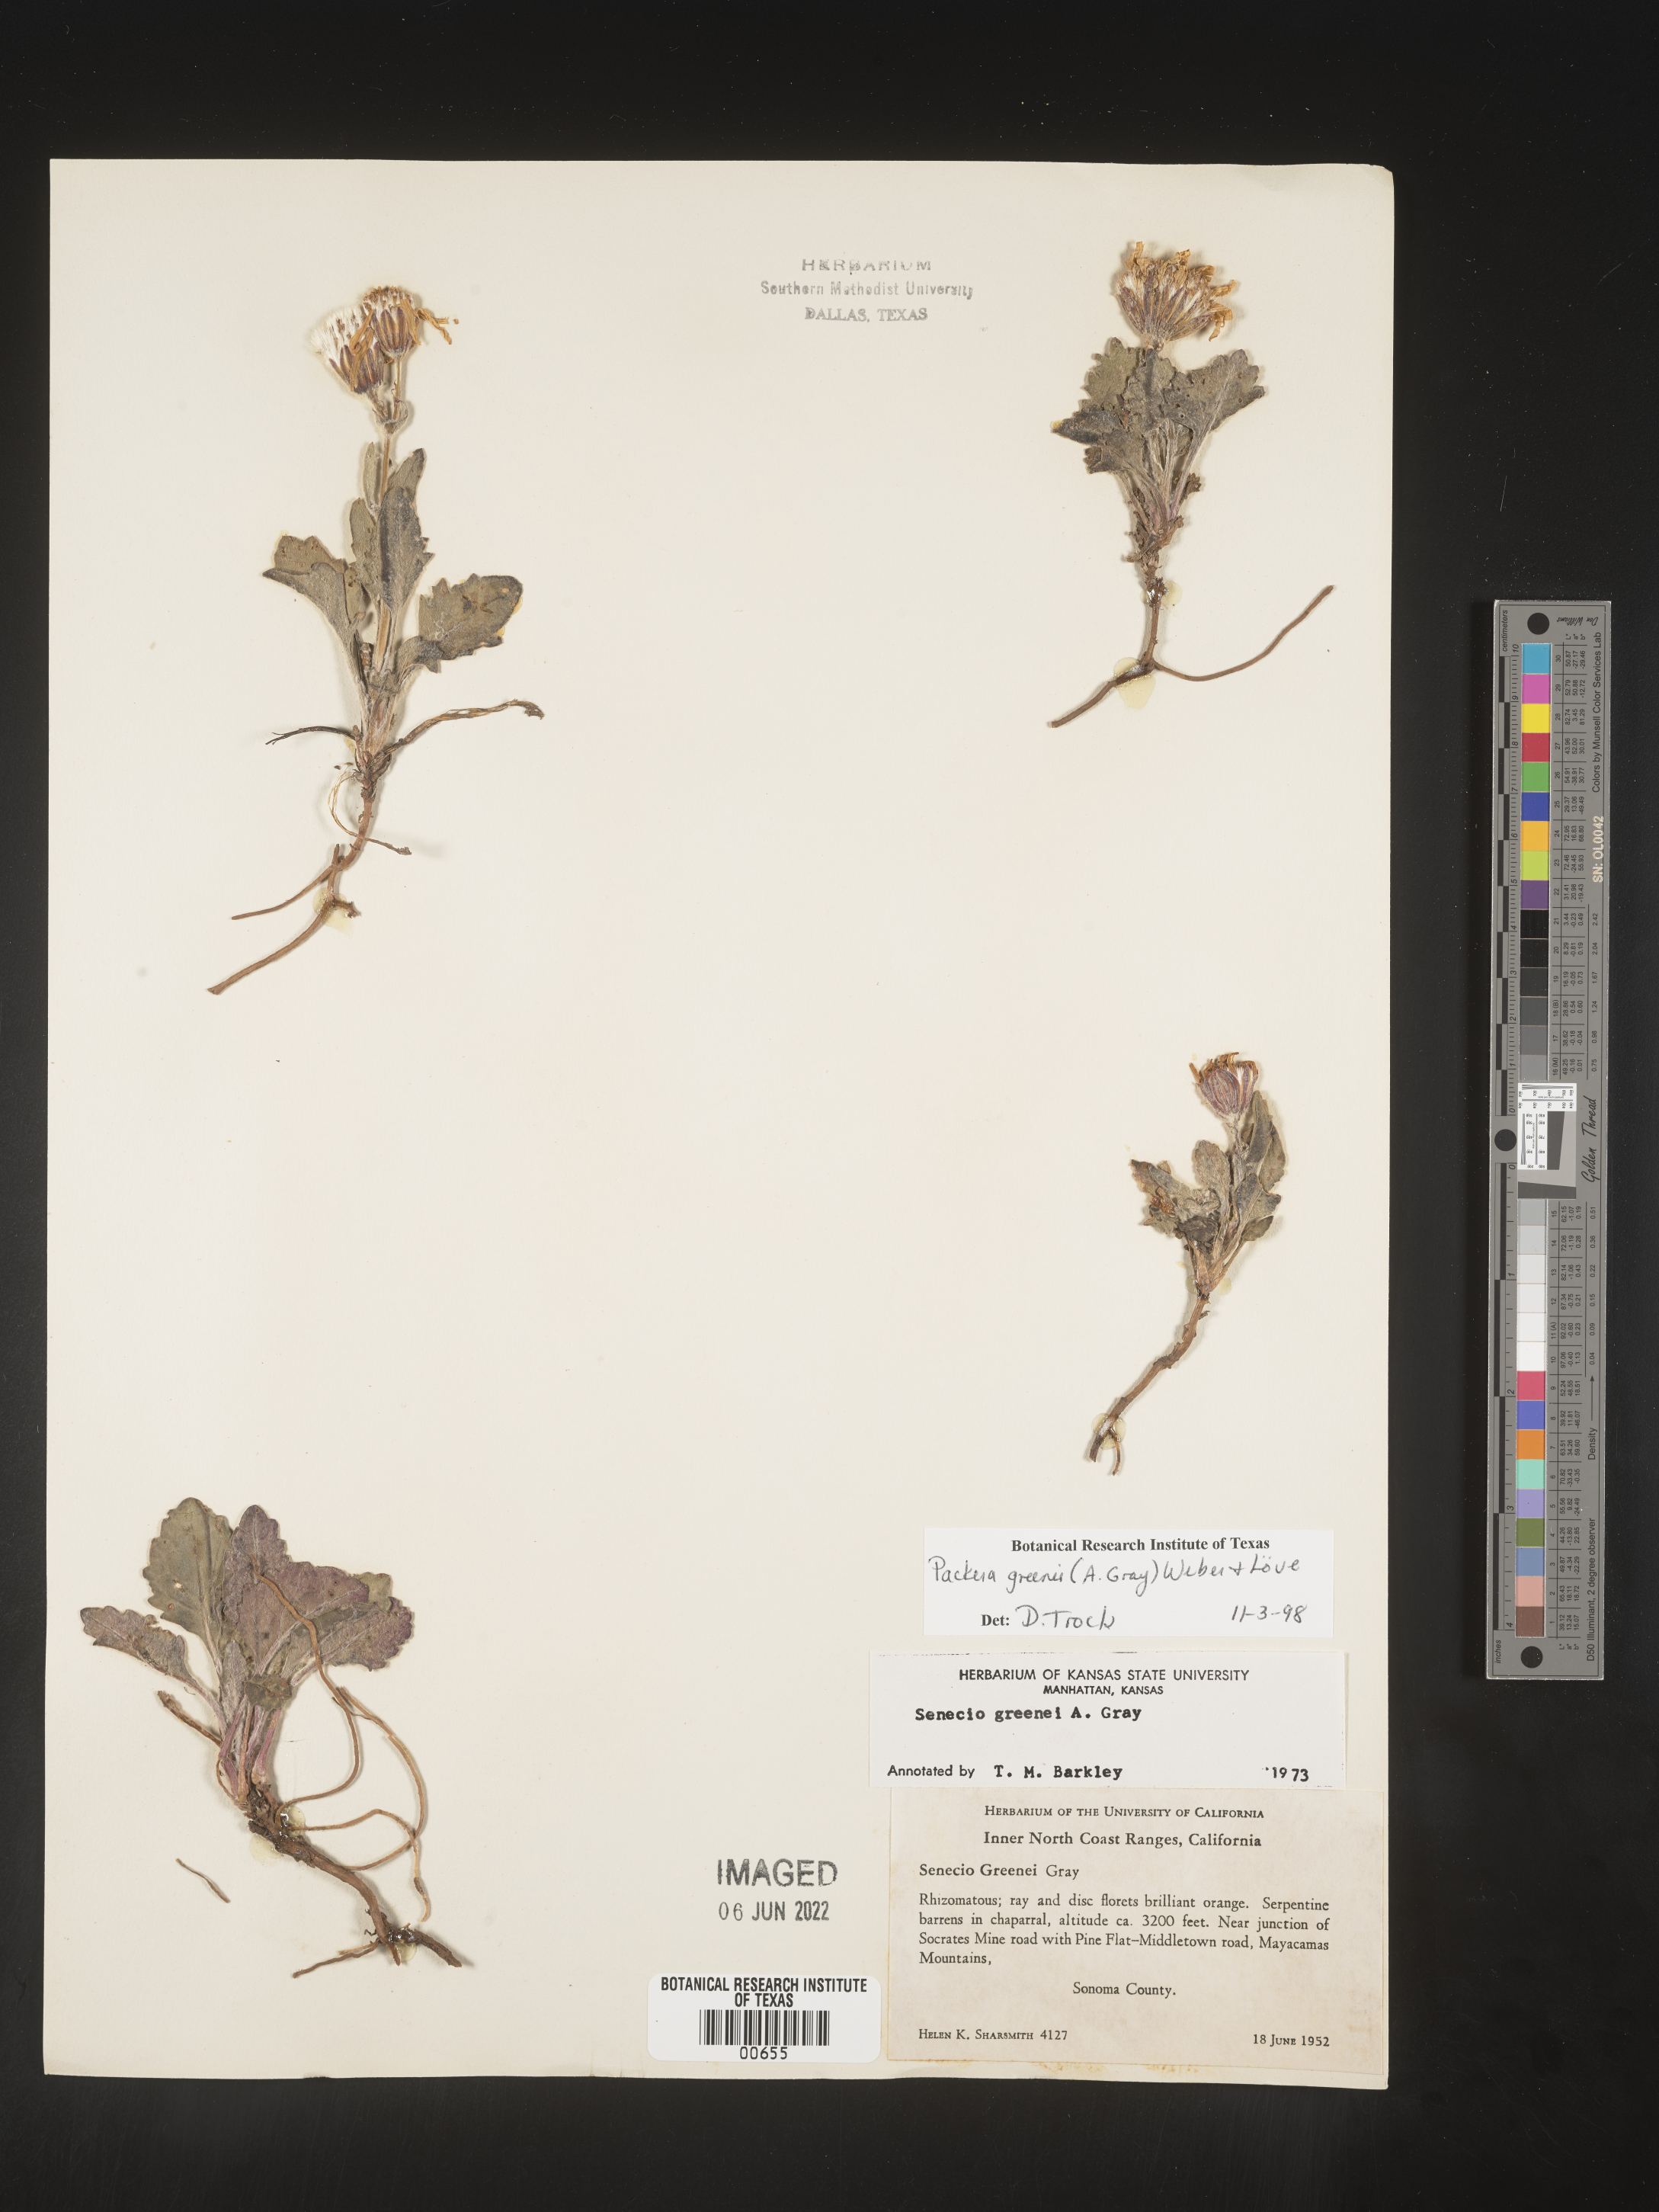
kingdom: Plantae
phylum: Tracheophyta
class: Magnoliopsida
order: Asterales
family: Asteraceae
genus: Packera
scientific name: Packera greenei
